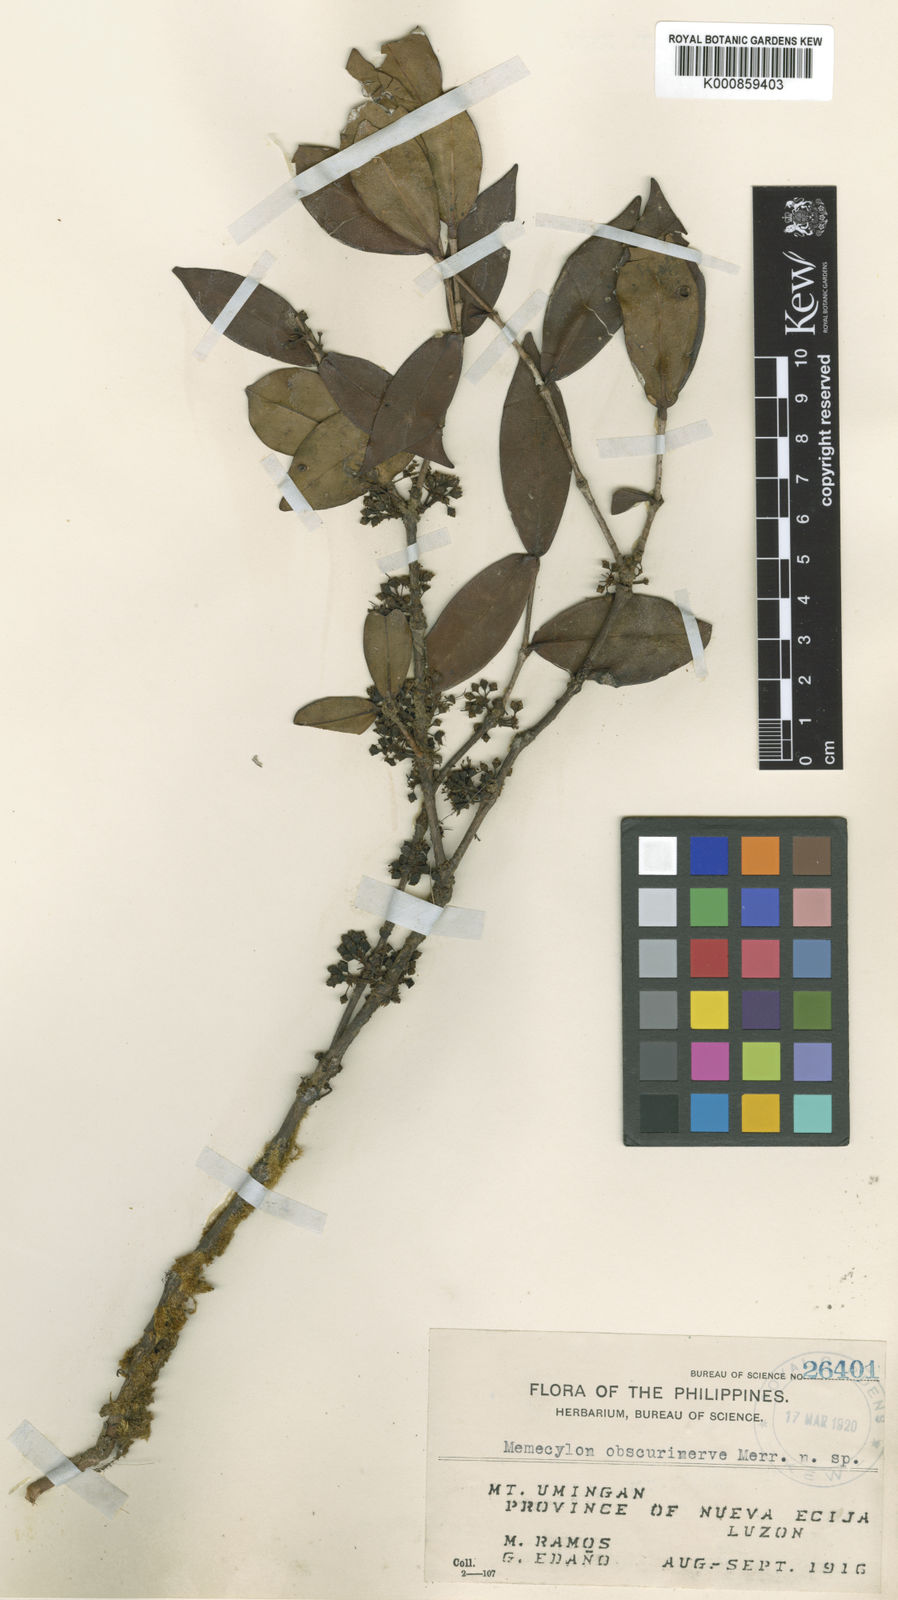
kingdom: Plantae
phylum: Tracheophyta
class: Magnoliopsida
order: Myrtales
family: Melastomataceae
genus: Memecylon
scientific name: Memecylon obscurinerve
